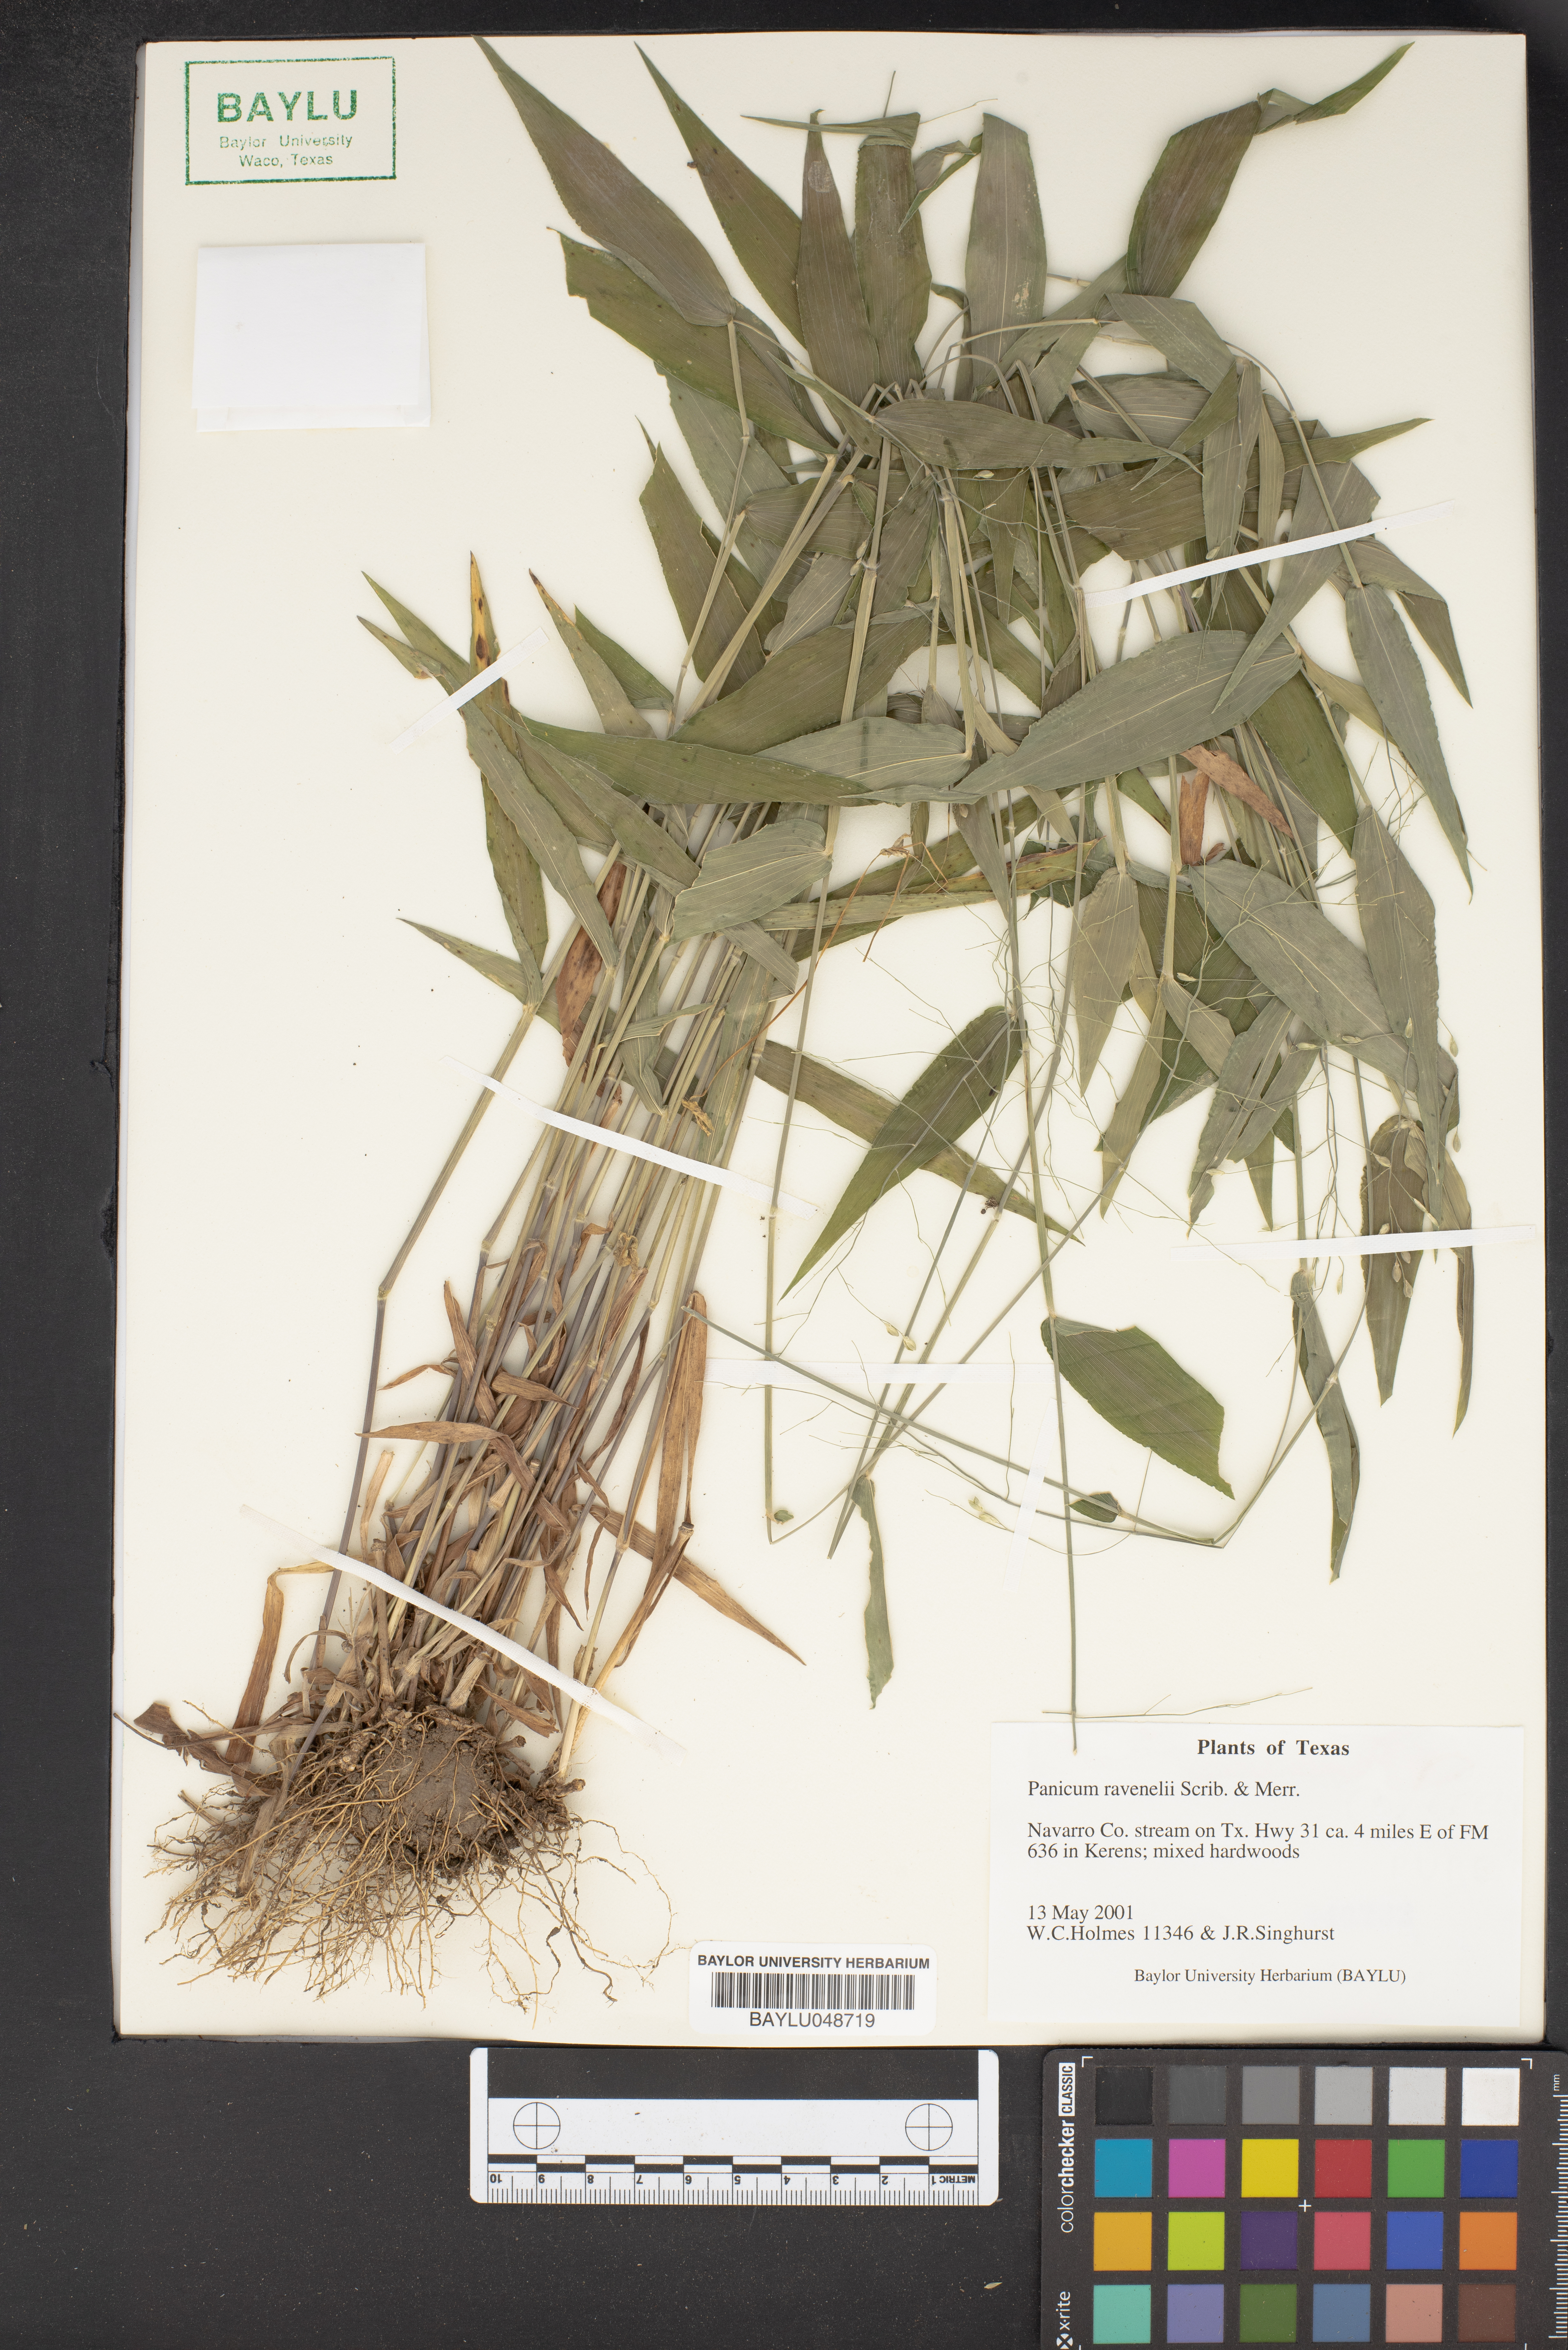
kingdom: Plantae
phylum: Tracheophyta
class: Liliopsida
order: Poales
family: Poaceae
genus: Dichanthelium
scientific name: Dichanthelium ravenelii
